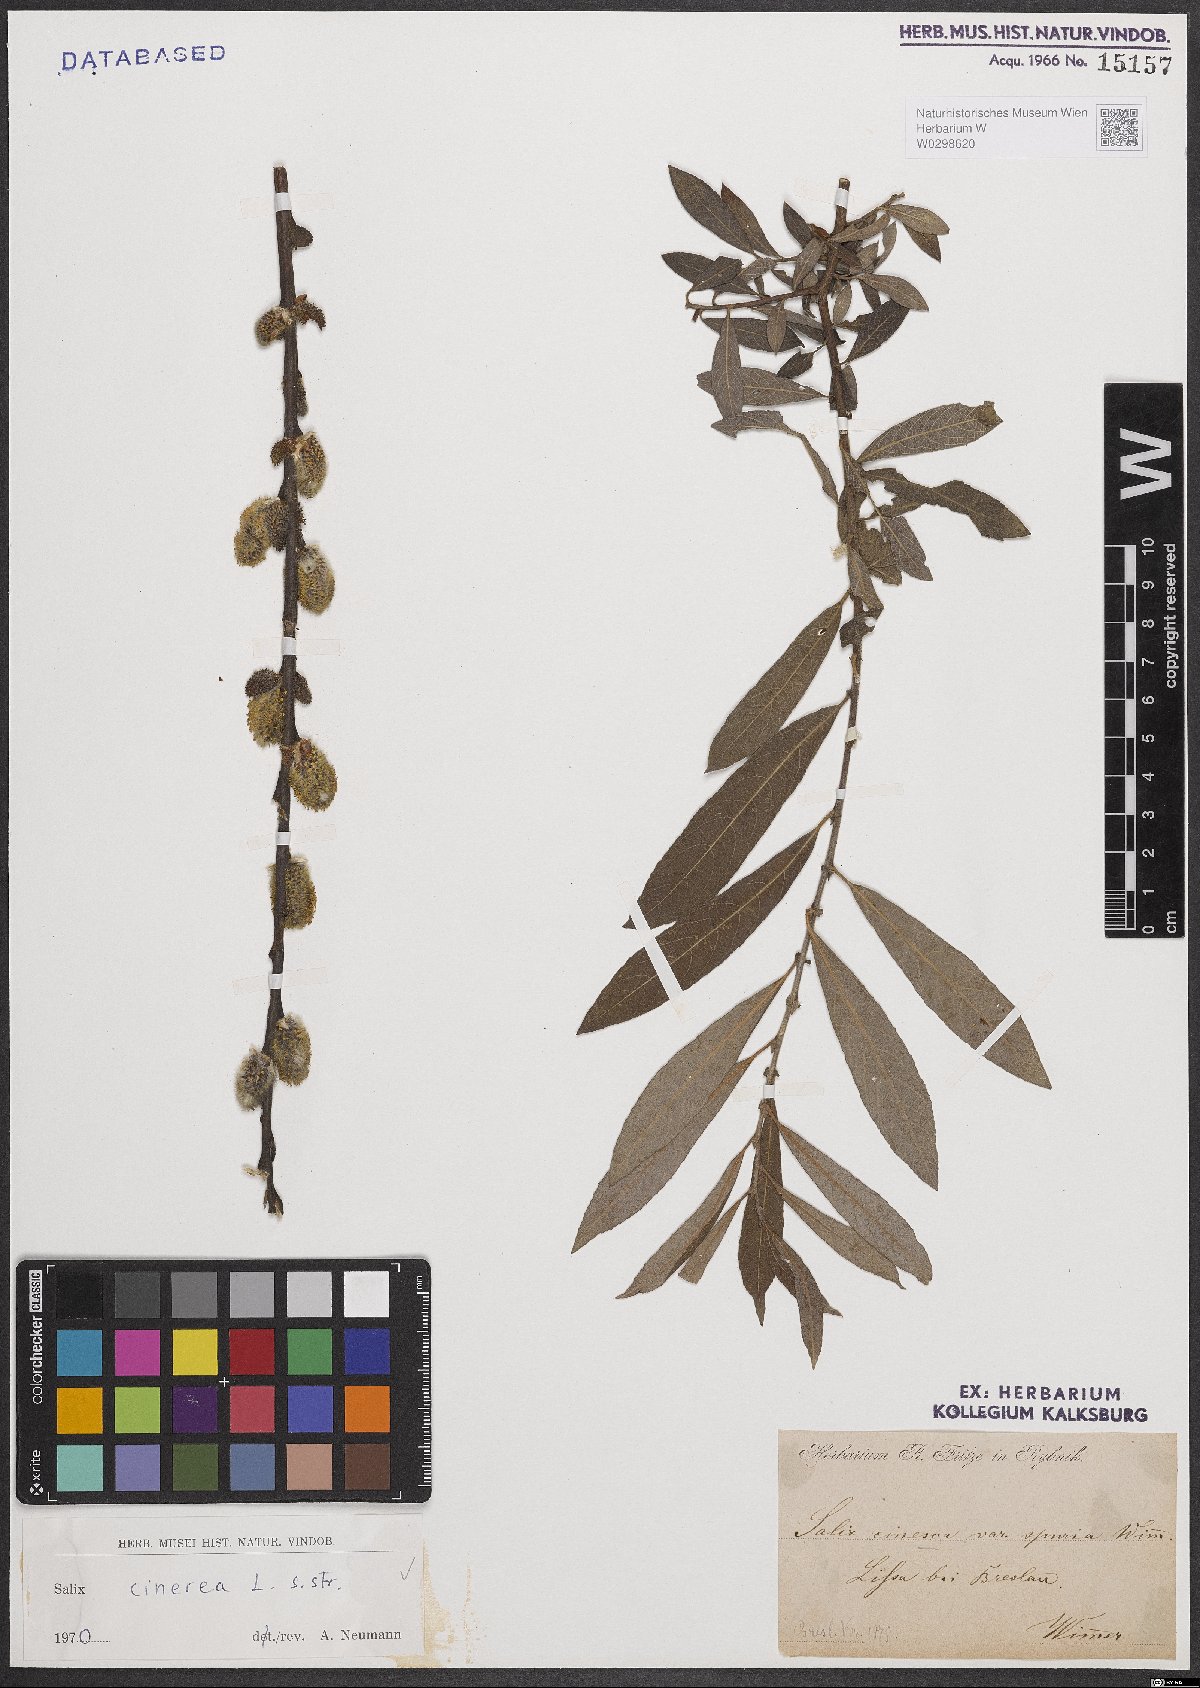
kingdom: Plantae
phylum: Tracheophyta
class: Magnoliopsida
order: Malpighiales
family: Salicaceae
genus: Salix
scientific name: Salix cinerea
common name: Common sallow
